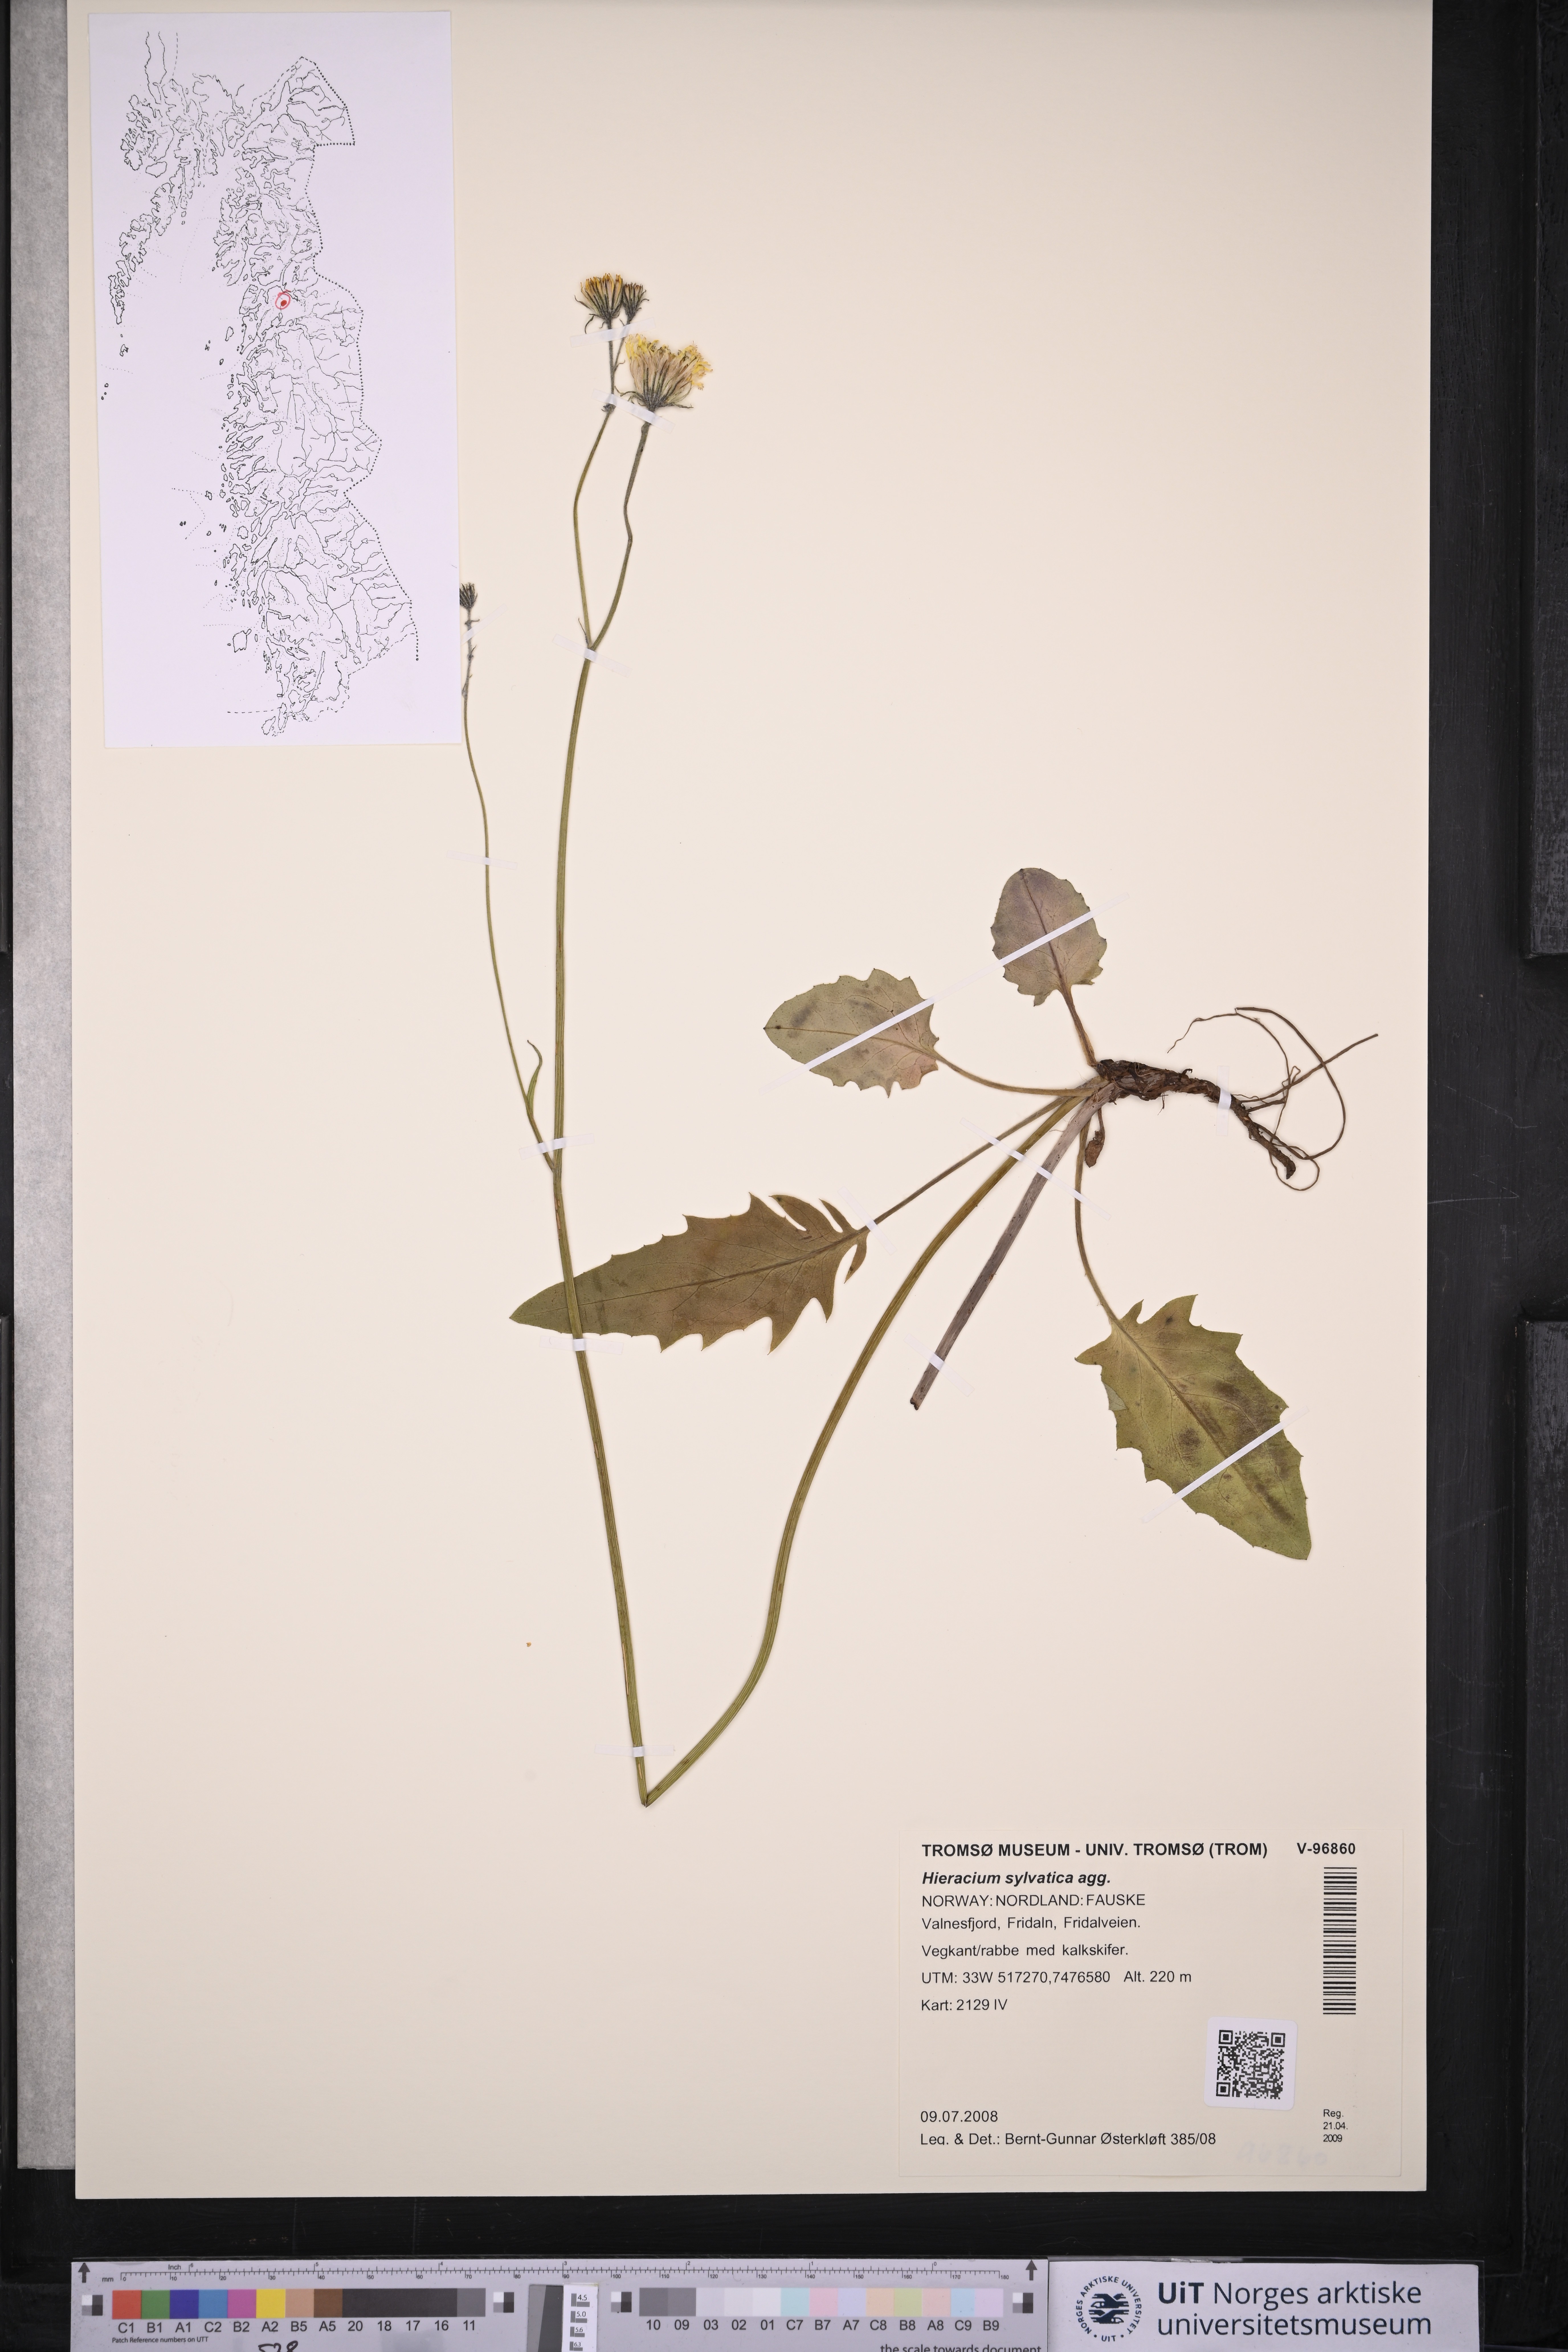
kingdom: Plantae
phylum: Tracheophyta
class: Magnoliopsida
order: Asterales
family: Asteraceae
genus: Hieracium
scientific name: Hieracium
